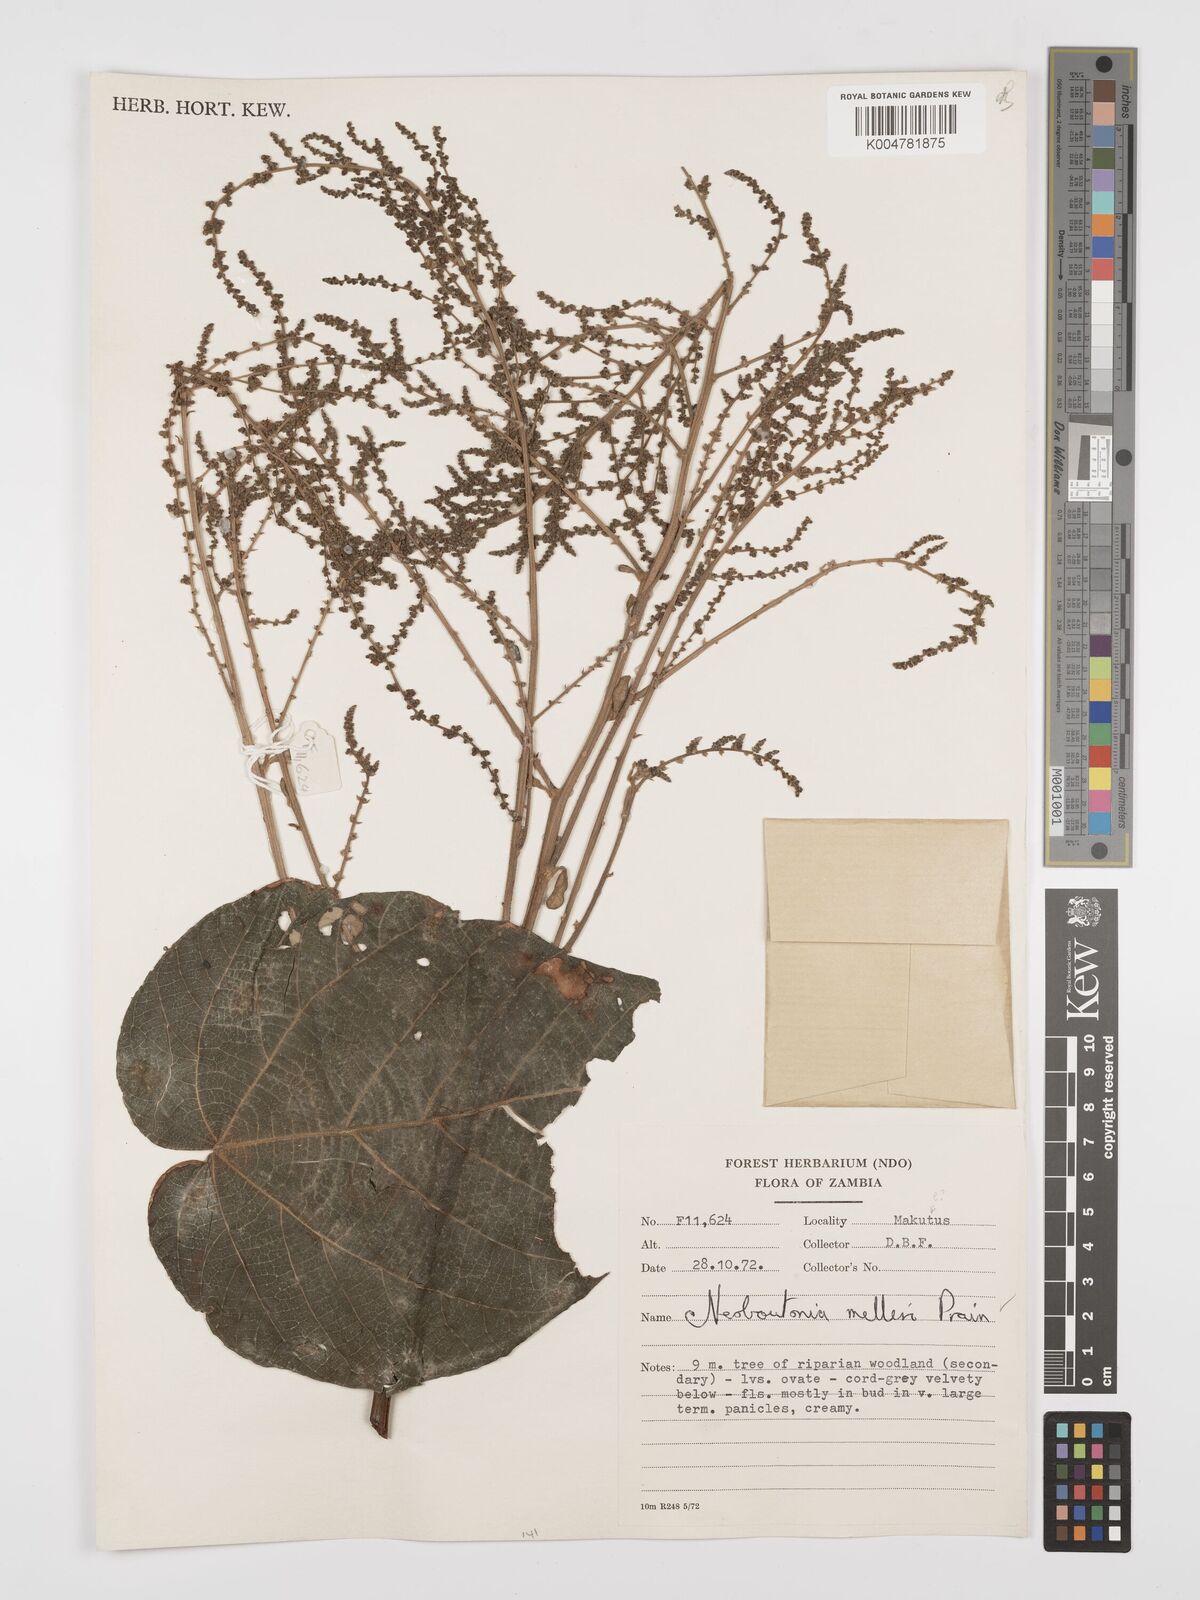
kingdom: Plantae
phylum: Tracheophyta
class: Magnoliopsida
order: Malpighiales
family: Euphorbiaceae
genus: Neoboutonia
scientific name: Neoboutonia melleri
